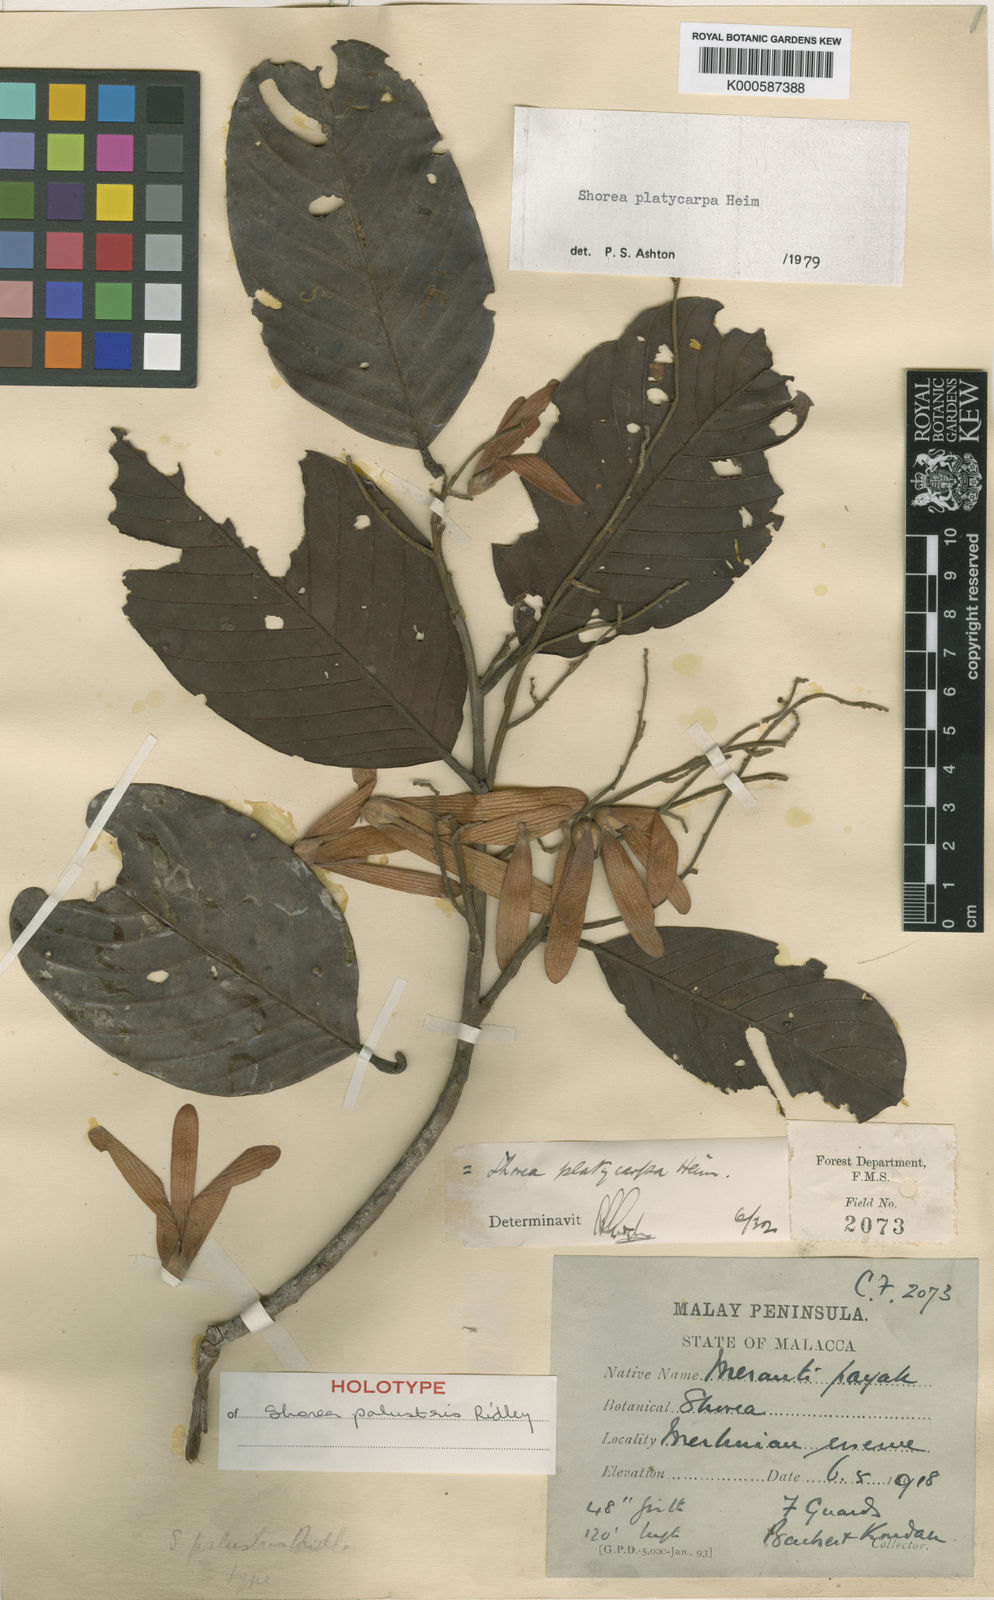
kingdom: Plantae
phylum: Tracheophyta
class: Magnoliopsida
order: Malvales
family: Dipterocarpaceae
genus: Shorea
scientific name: Shorea platycarpa
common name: Light red meranti
